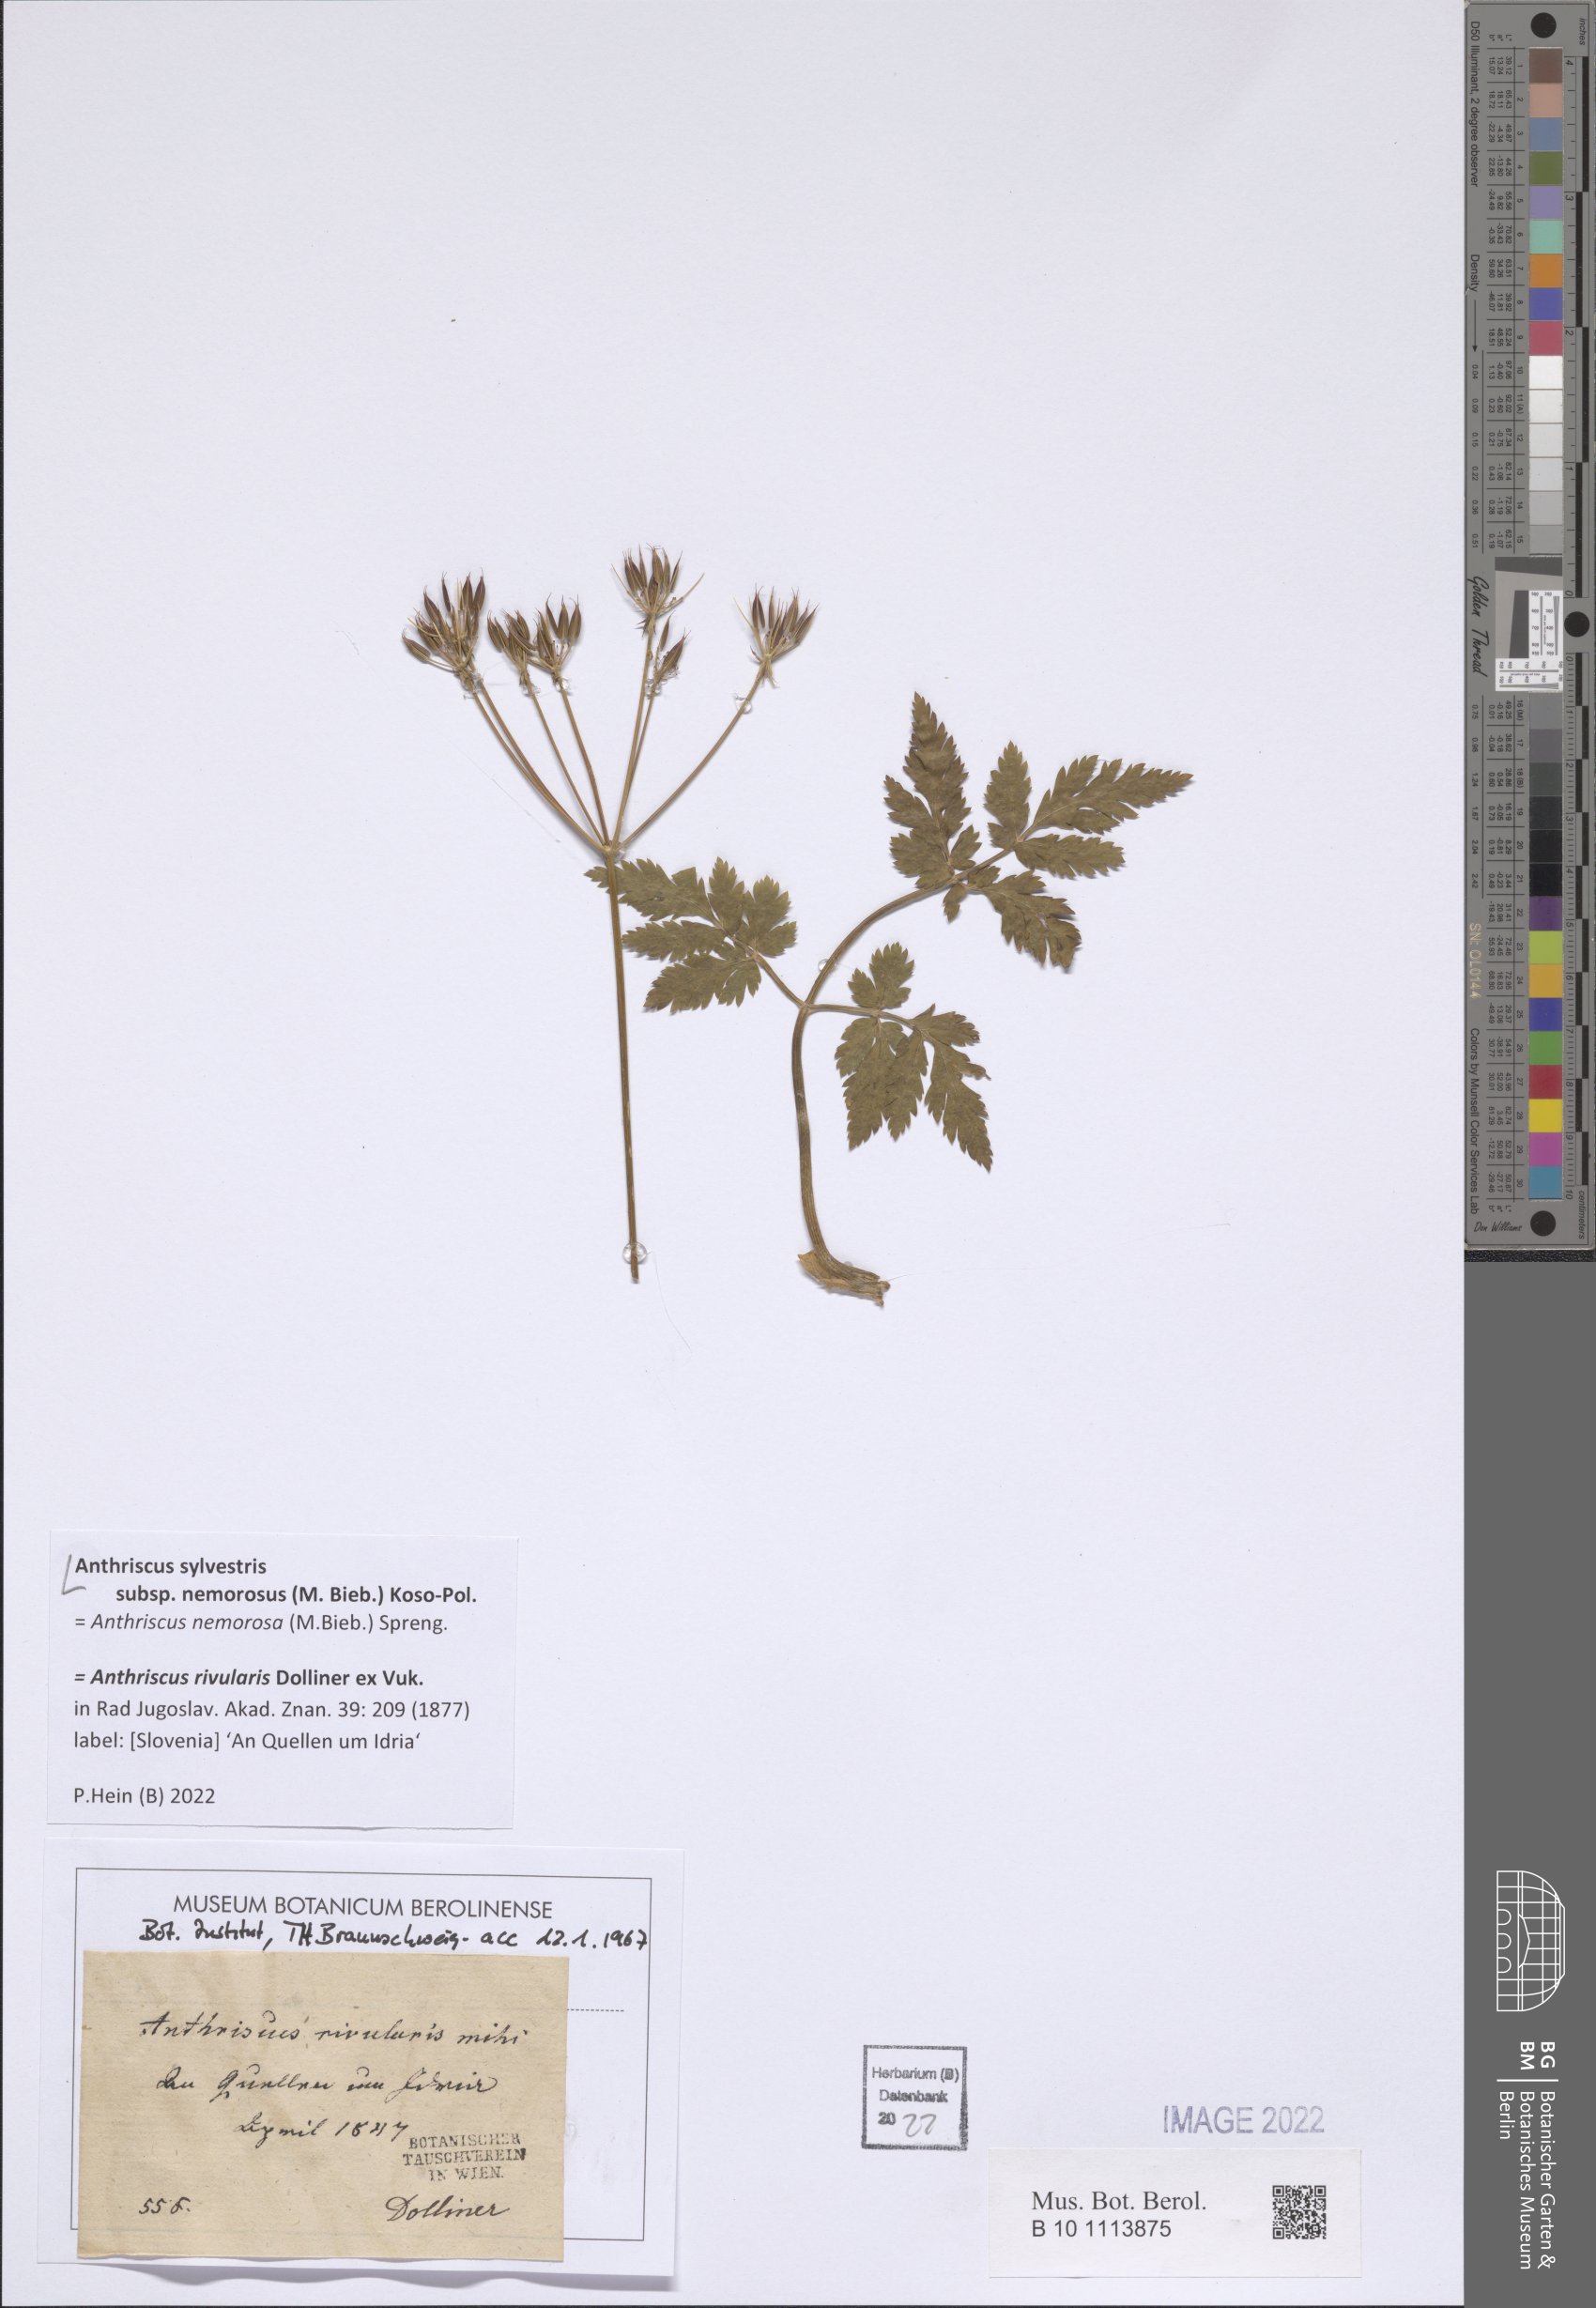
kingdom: Plantae
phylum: Tracheophyta
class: Magnoliopsida
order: Apiales
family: Apiaceae
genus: Anthriscus
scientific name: Anthriscus sylvestris
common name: Cow parsley
